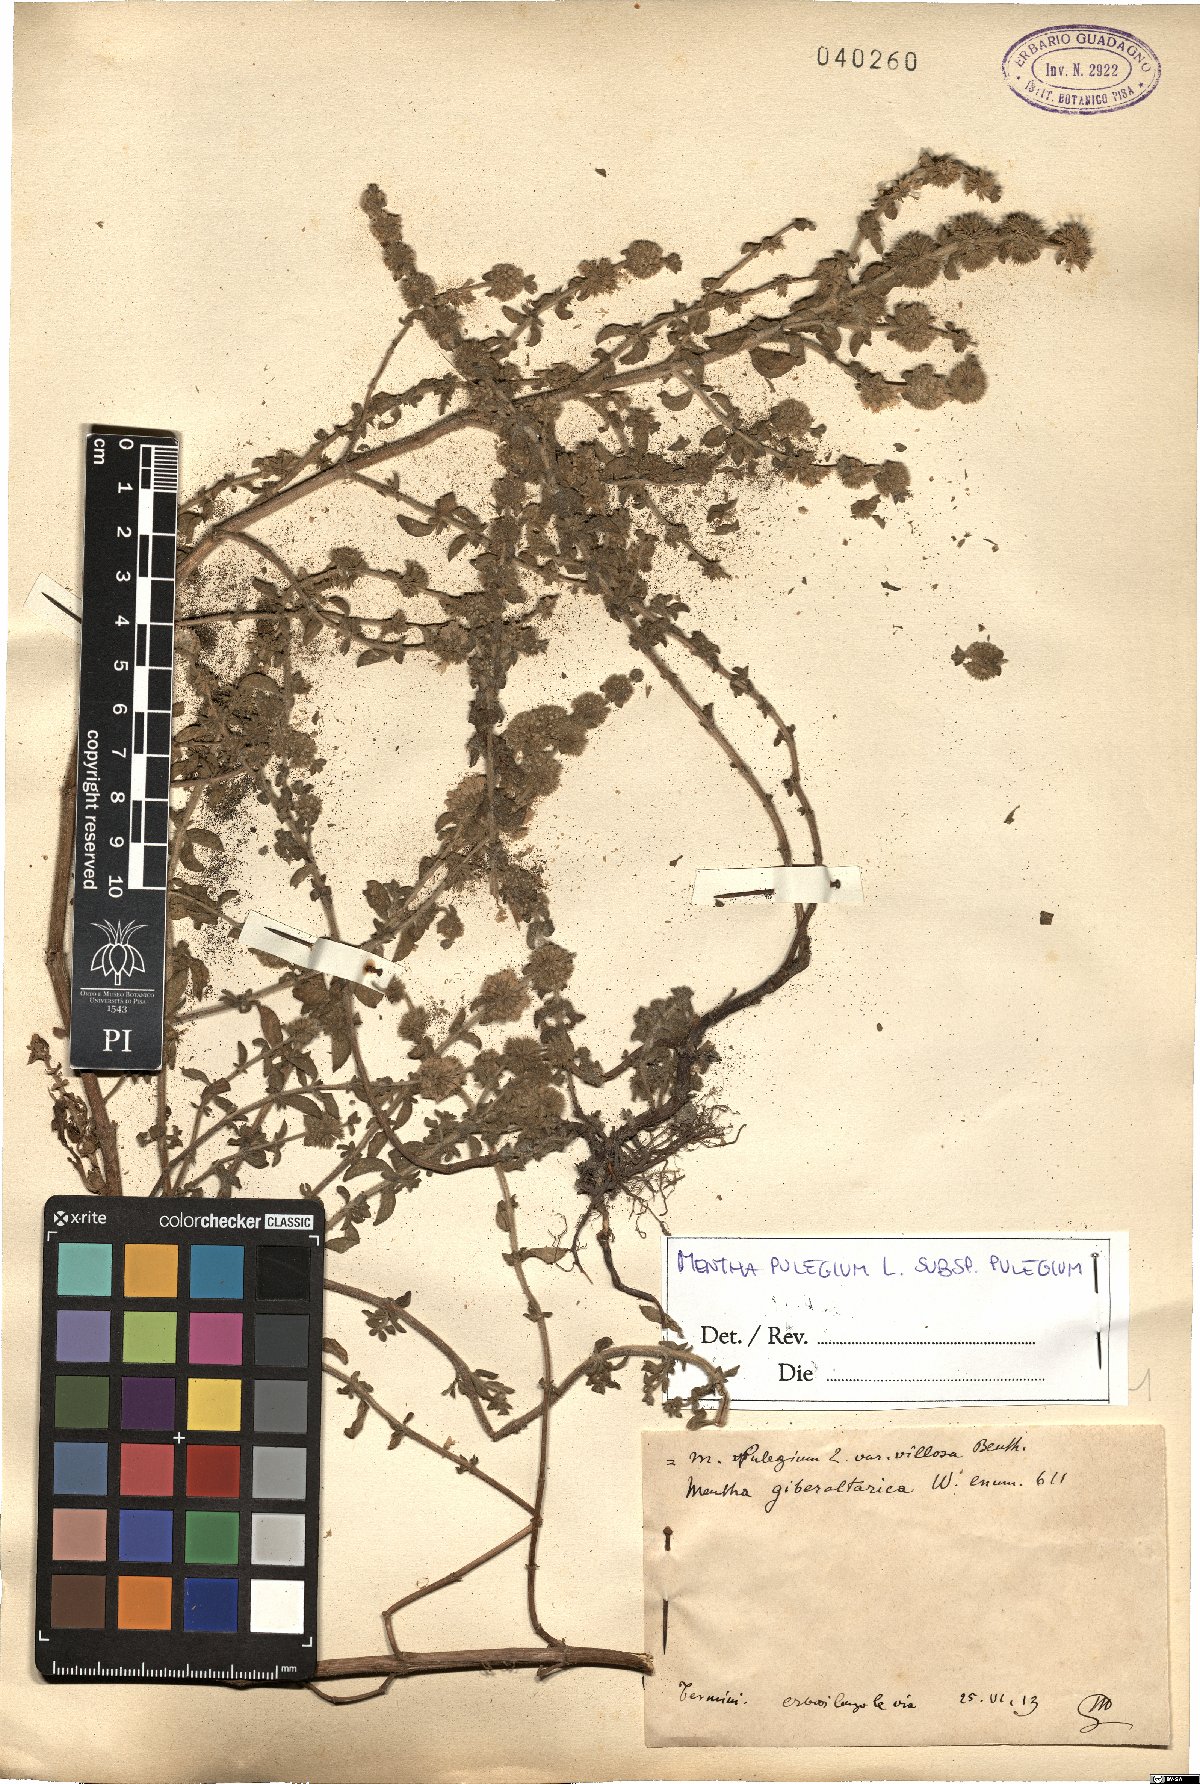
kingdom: Plantae
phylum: Tracheophyta
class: Magnoliopsida
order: Lamiales
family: Lamiaceae
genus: Mentha
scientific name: Mentha pulegium
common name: Pennyroyal
